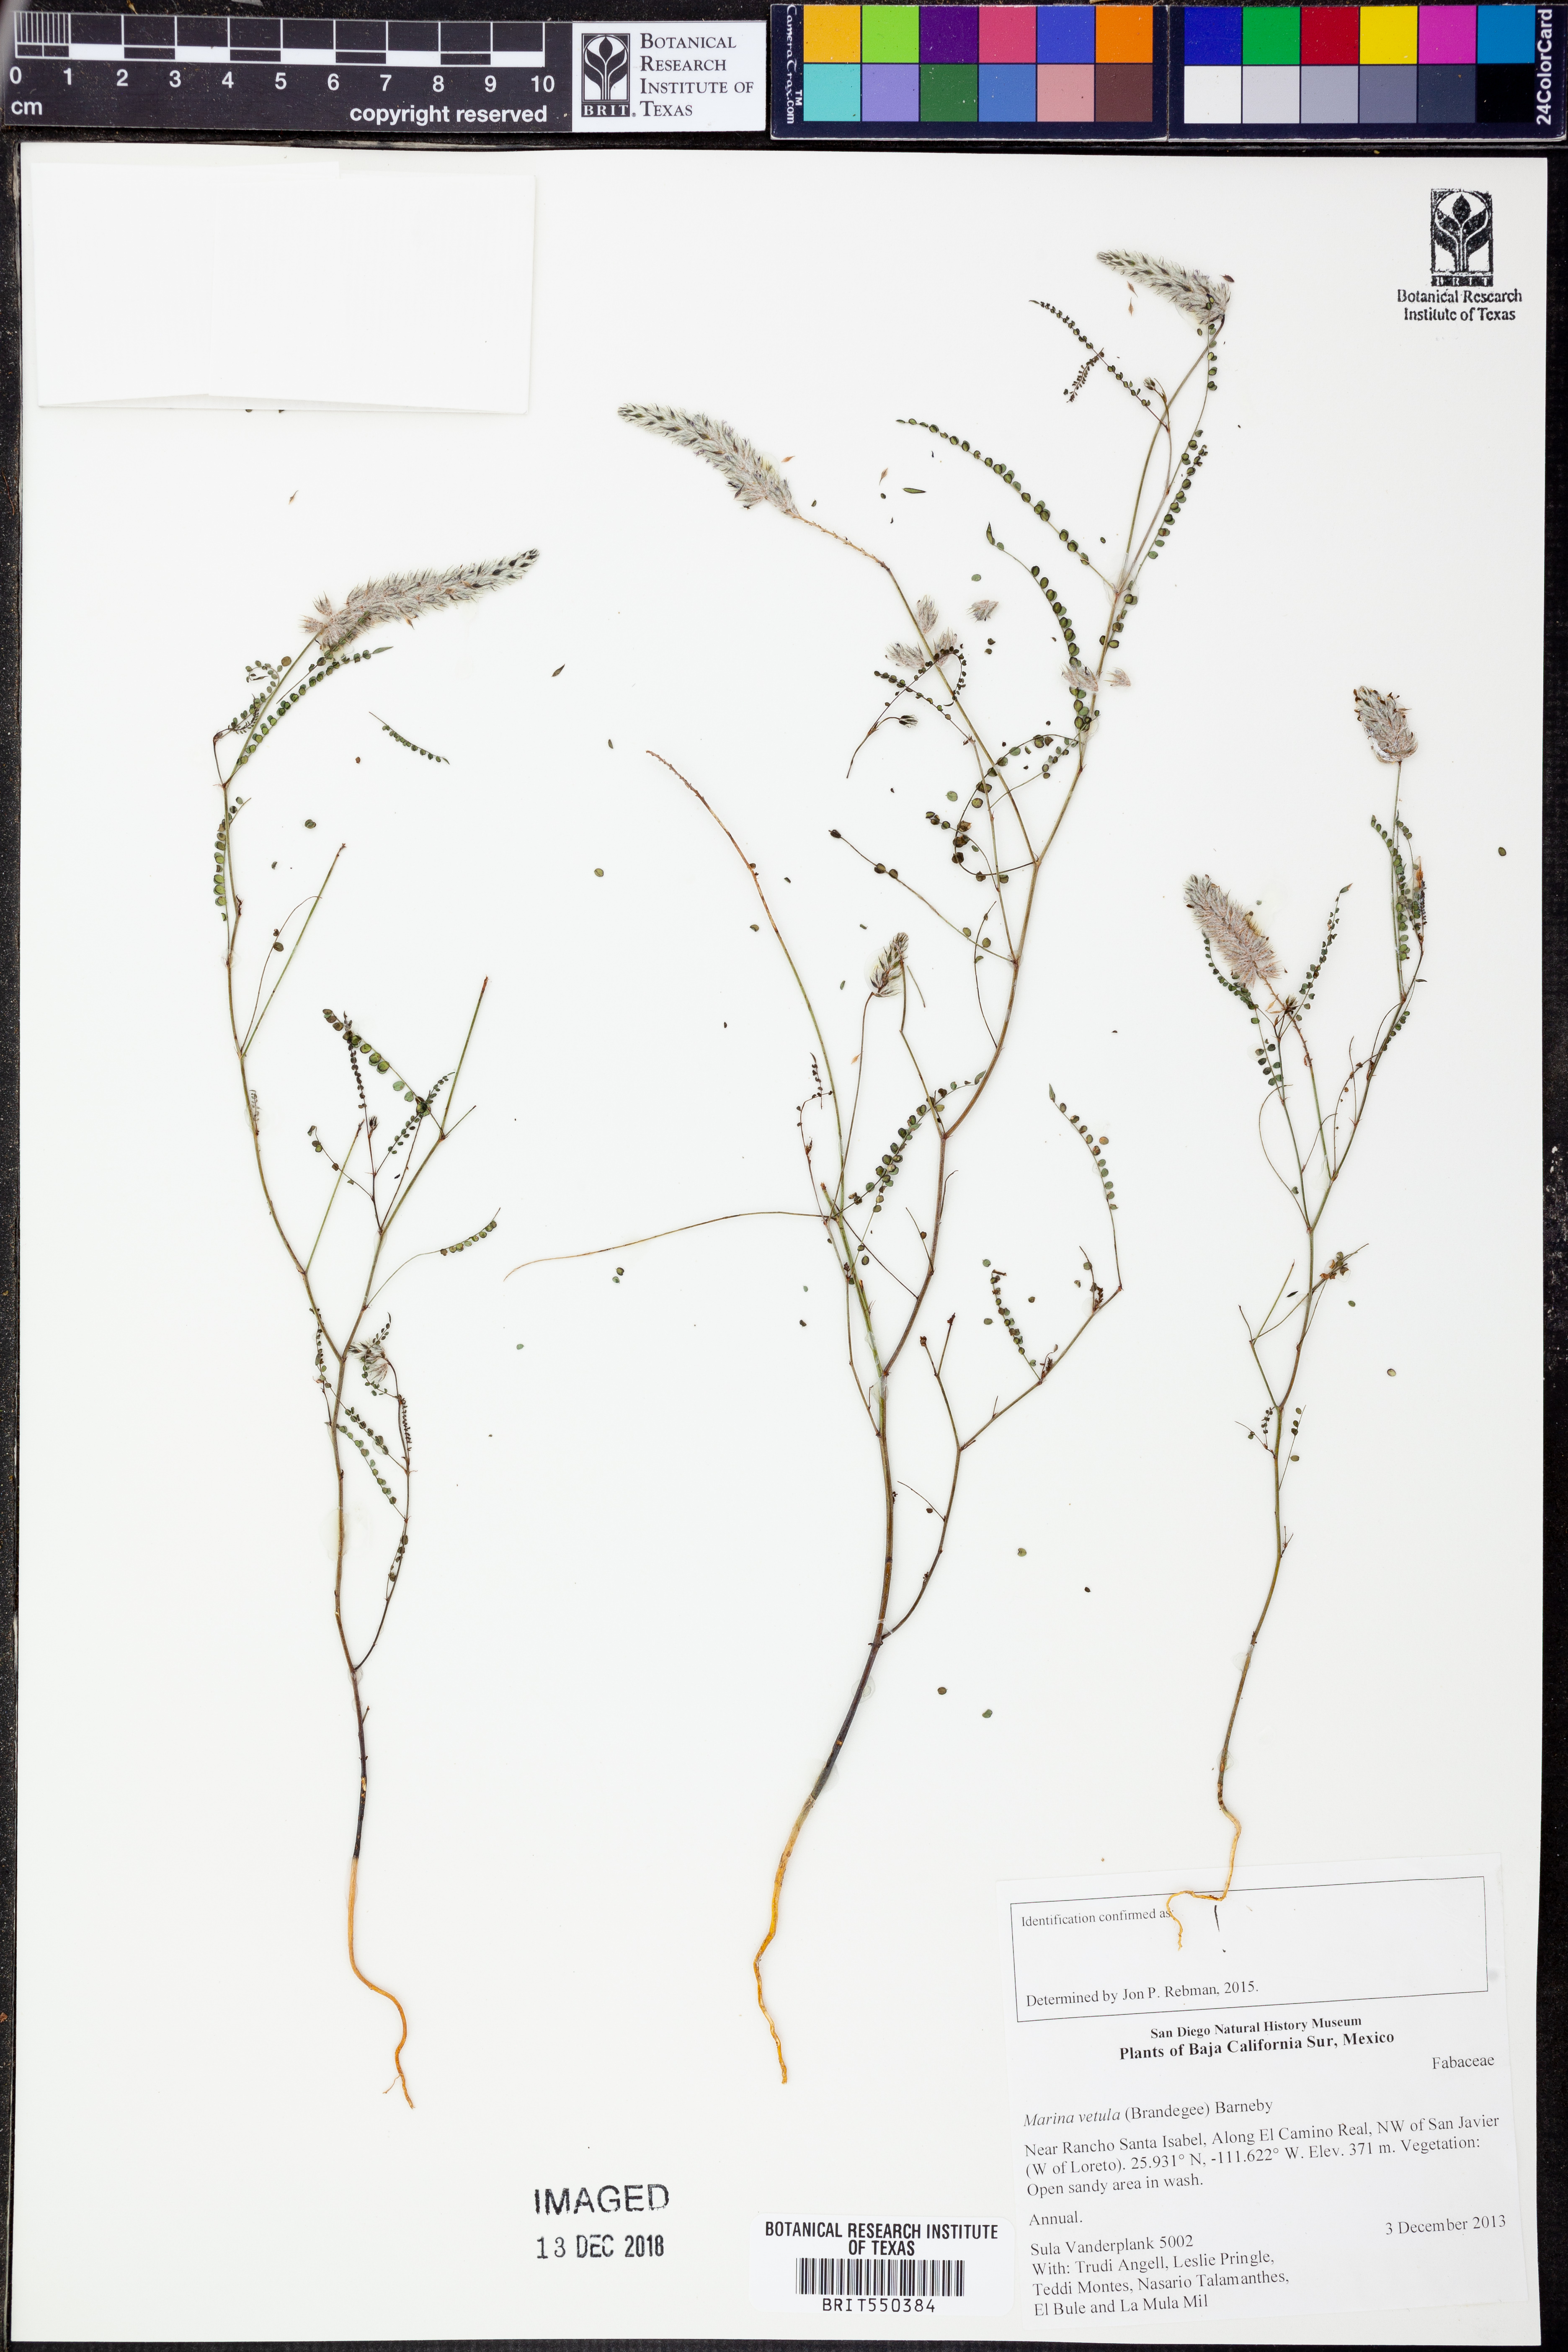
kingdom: Plantae
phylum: Tracheophyta
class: Magnoliopsida
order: Fabales
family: Fabaceae
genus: Marina
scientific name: Marina vetula
